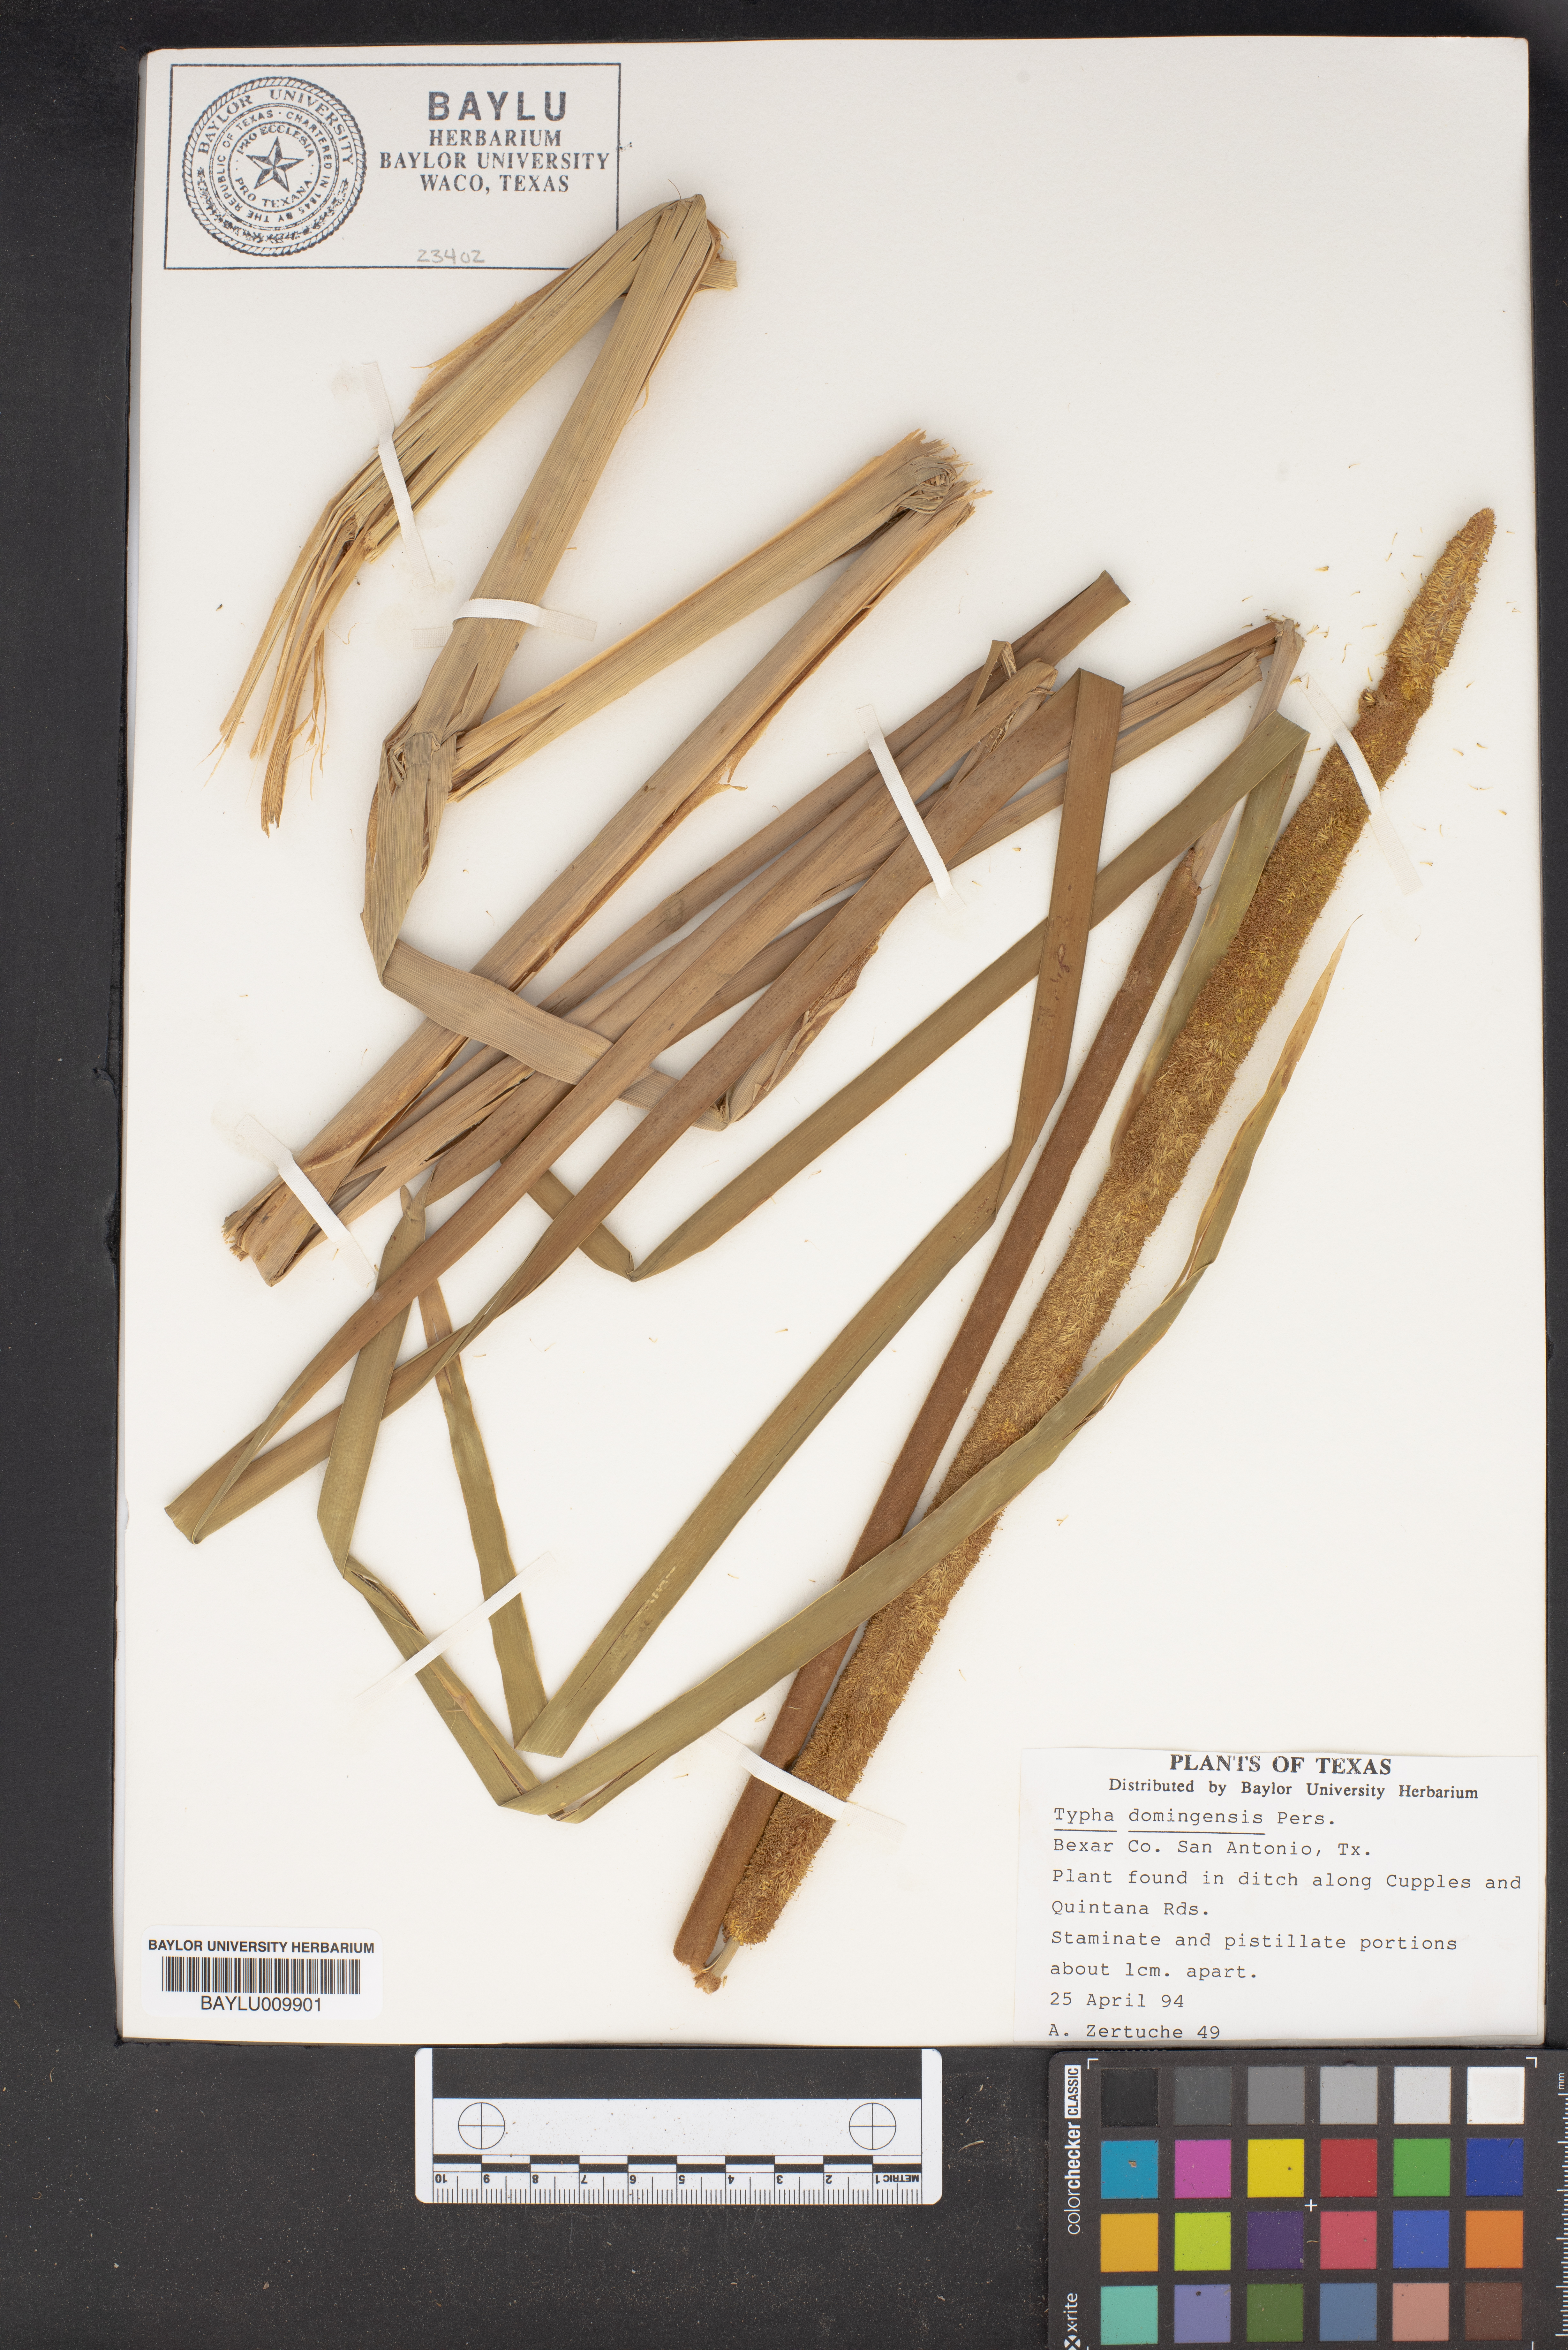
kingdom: Plantae
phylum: Tracheophyta
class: Liliopsida
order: Poales
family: Typhaceae
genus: Typha
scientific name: Typha domingensis
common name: Southern cattail
